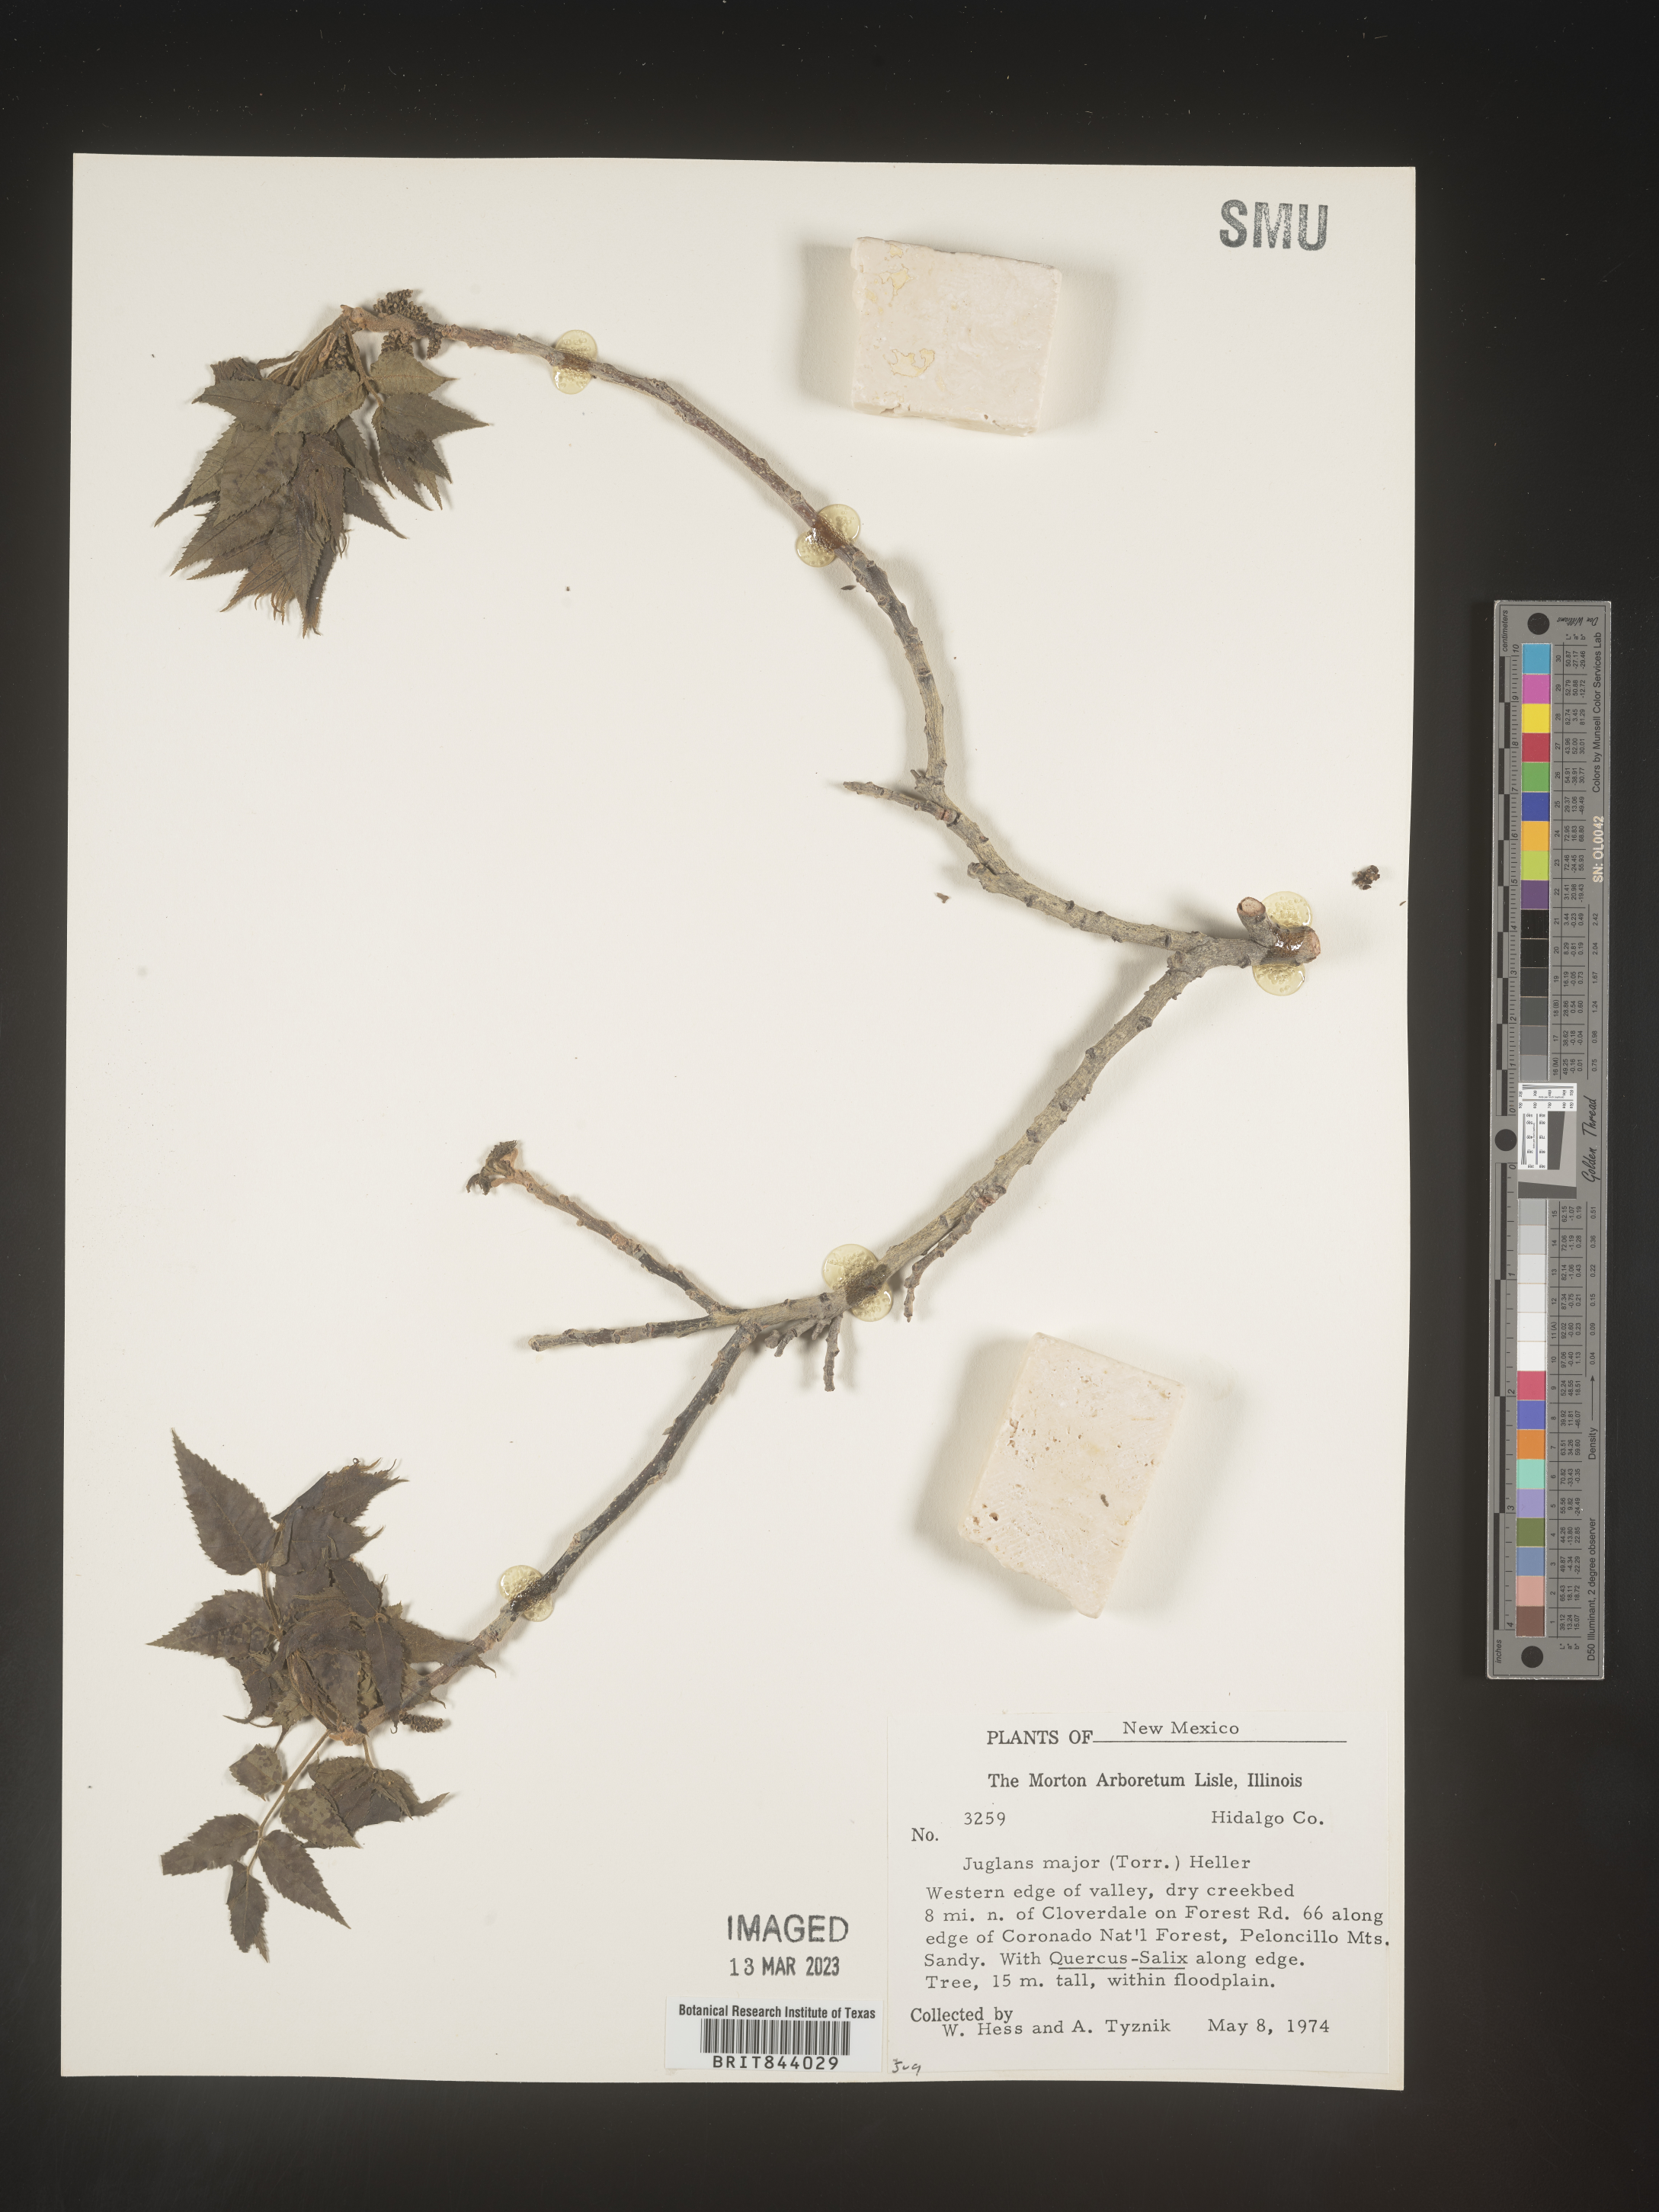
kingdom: Plantae
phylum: Tracheophyta
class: Magnoliopsida
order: Fagales
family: Juglandaceae
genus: Juglans
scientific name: Juglans major
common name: Arizona walnut
